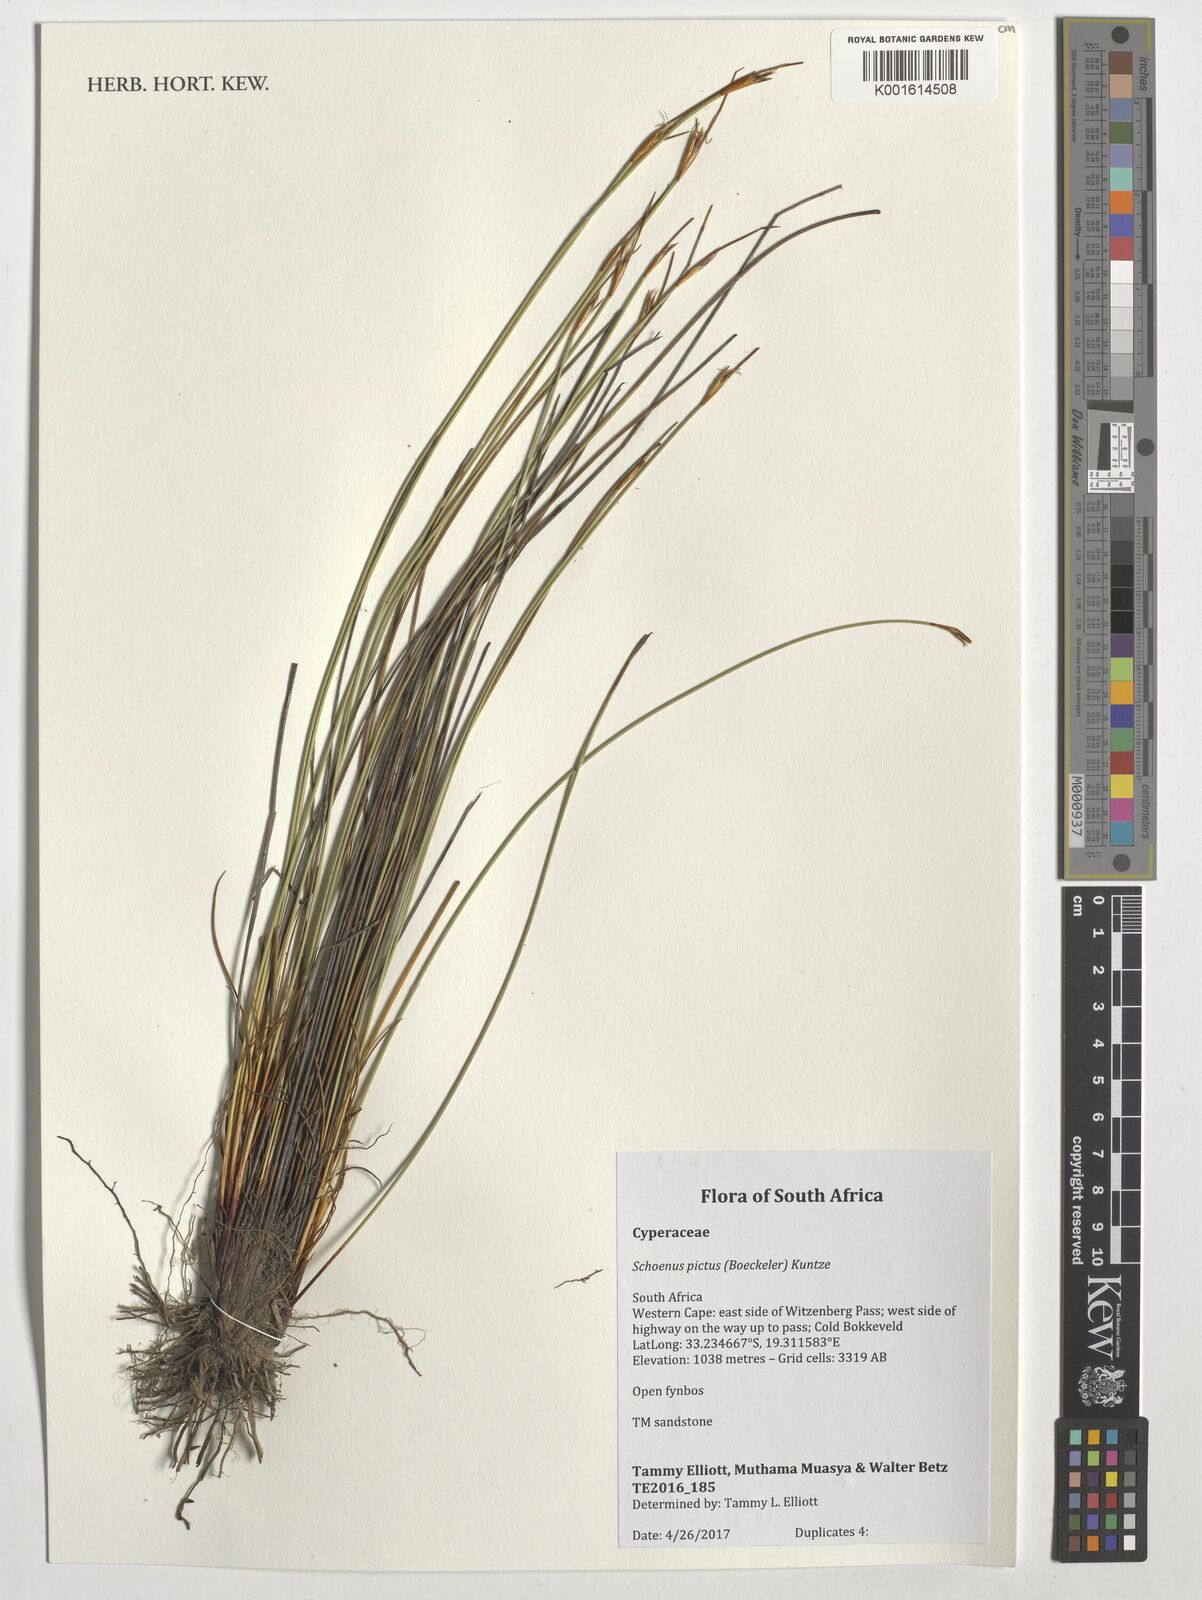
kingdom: Plantae
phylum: Tracheophyta
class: Liliopsida
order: Poales
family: Cyperaceae
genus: Schoenus
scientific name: Schoenus pictus
